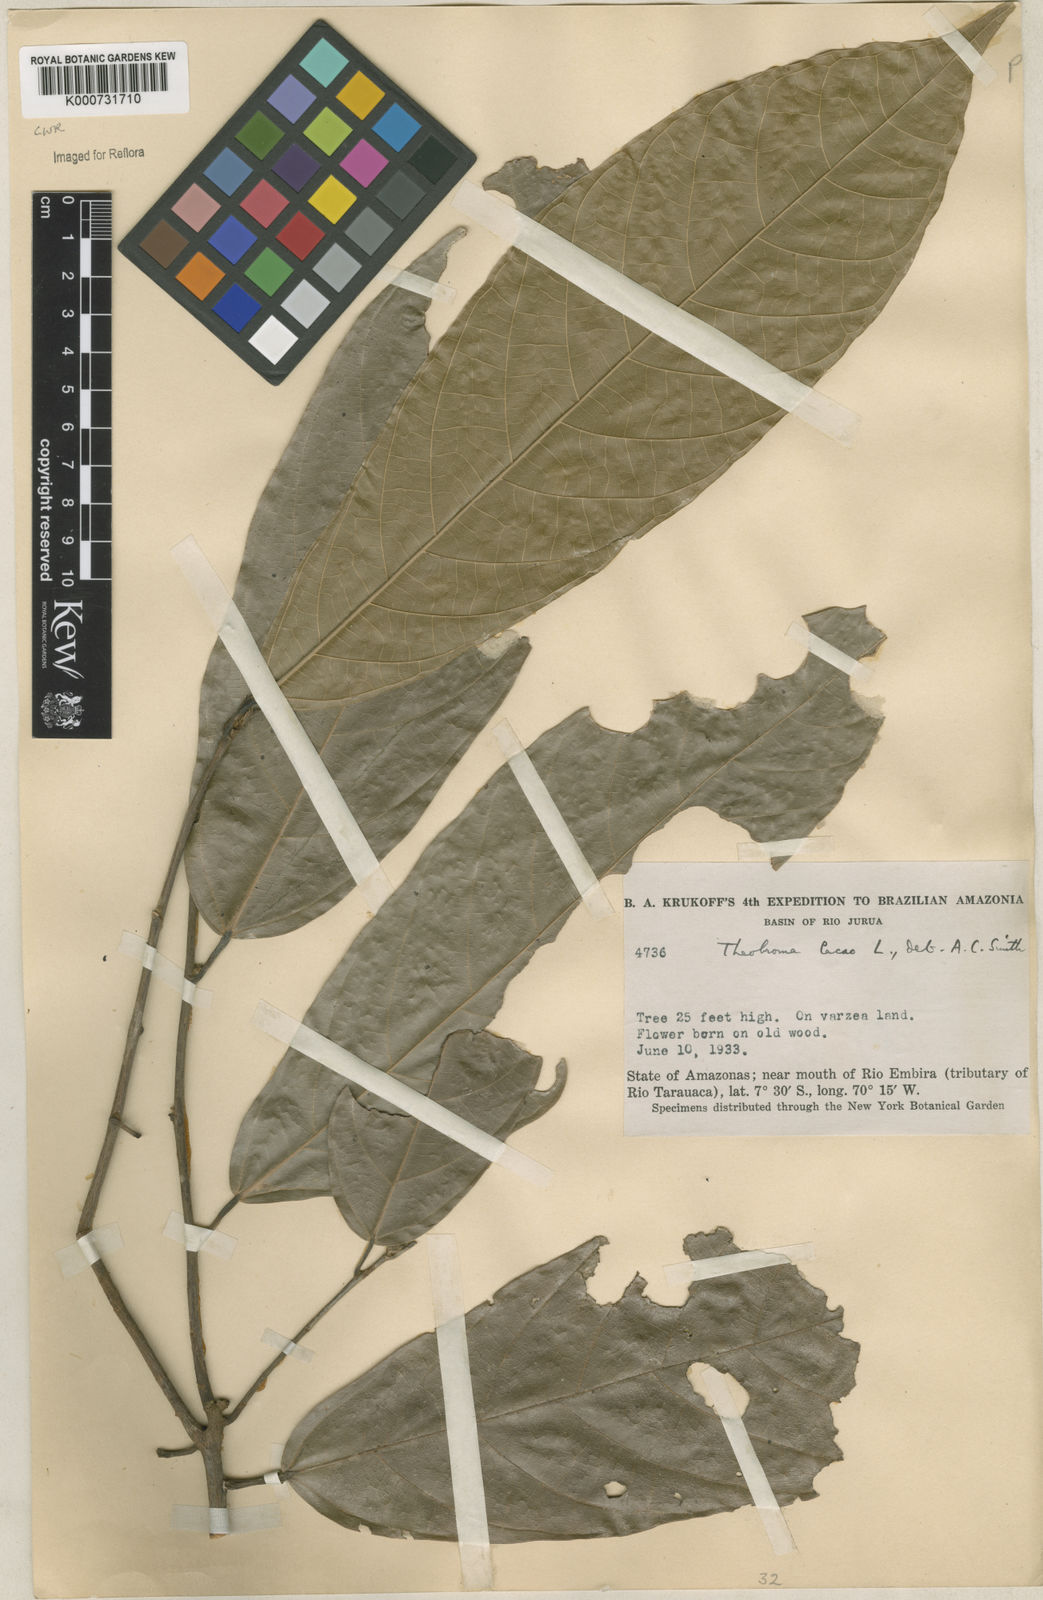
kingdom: Plantae
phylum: Tracheophyta
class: Magnoliopsida
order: Malvales
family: Malvaceae
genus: Theobroma
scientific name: Theobroma cacao
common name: Cocoa
